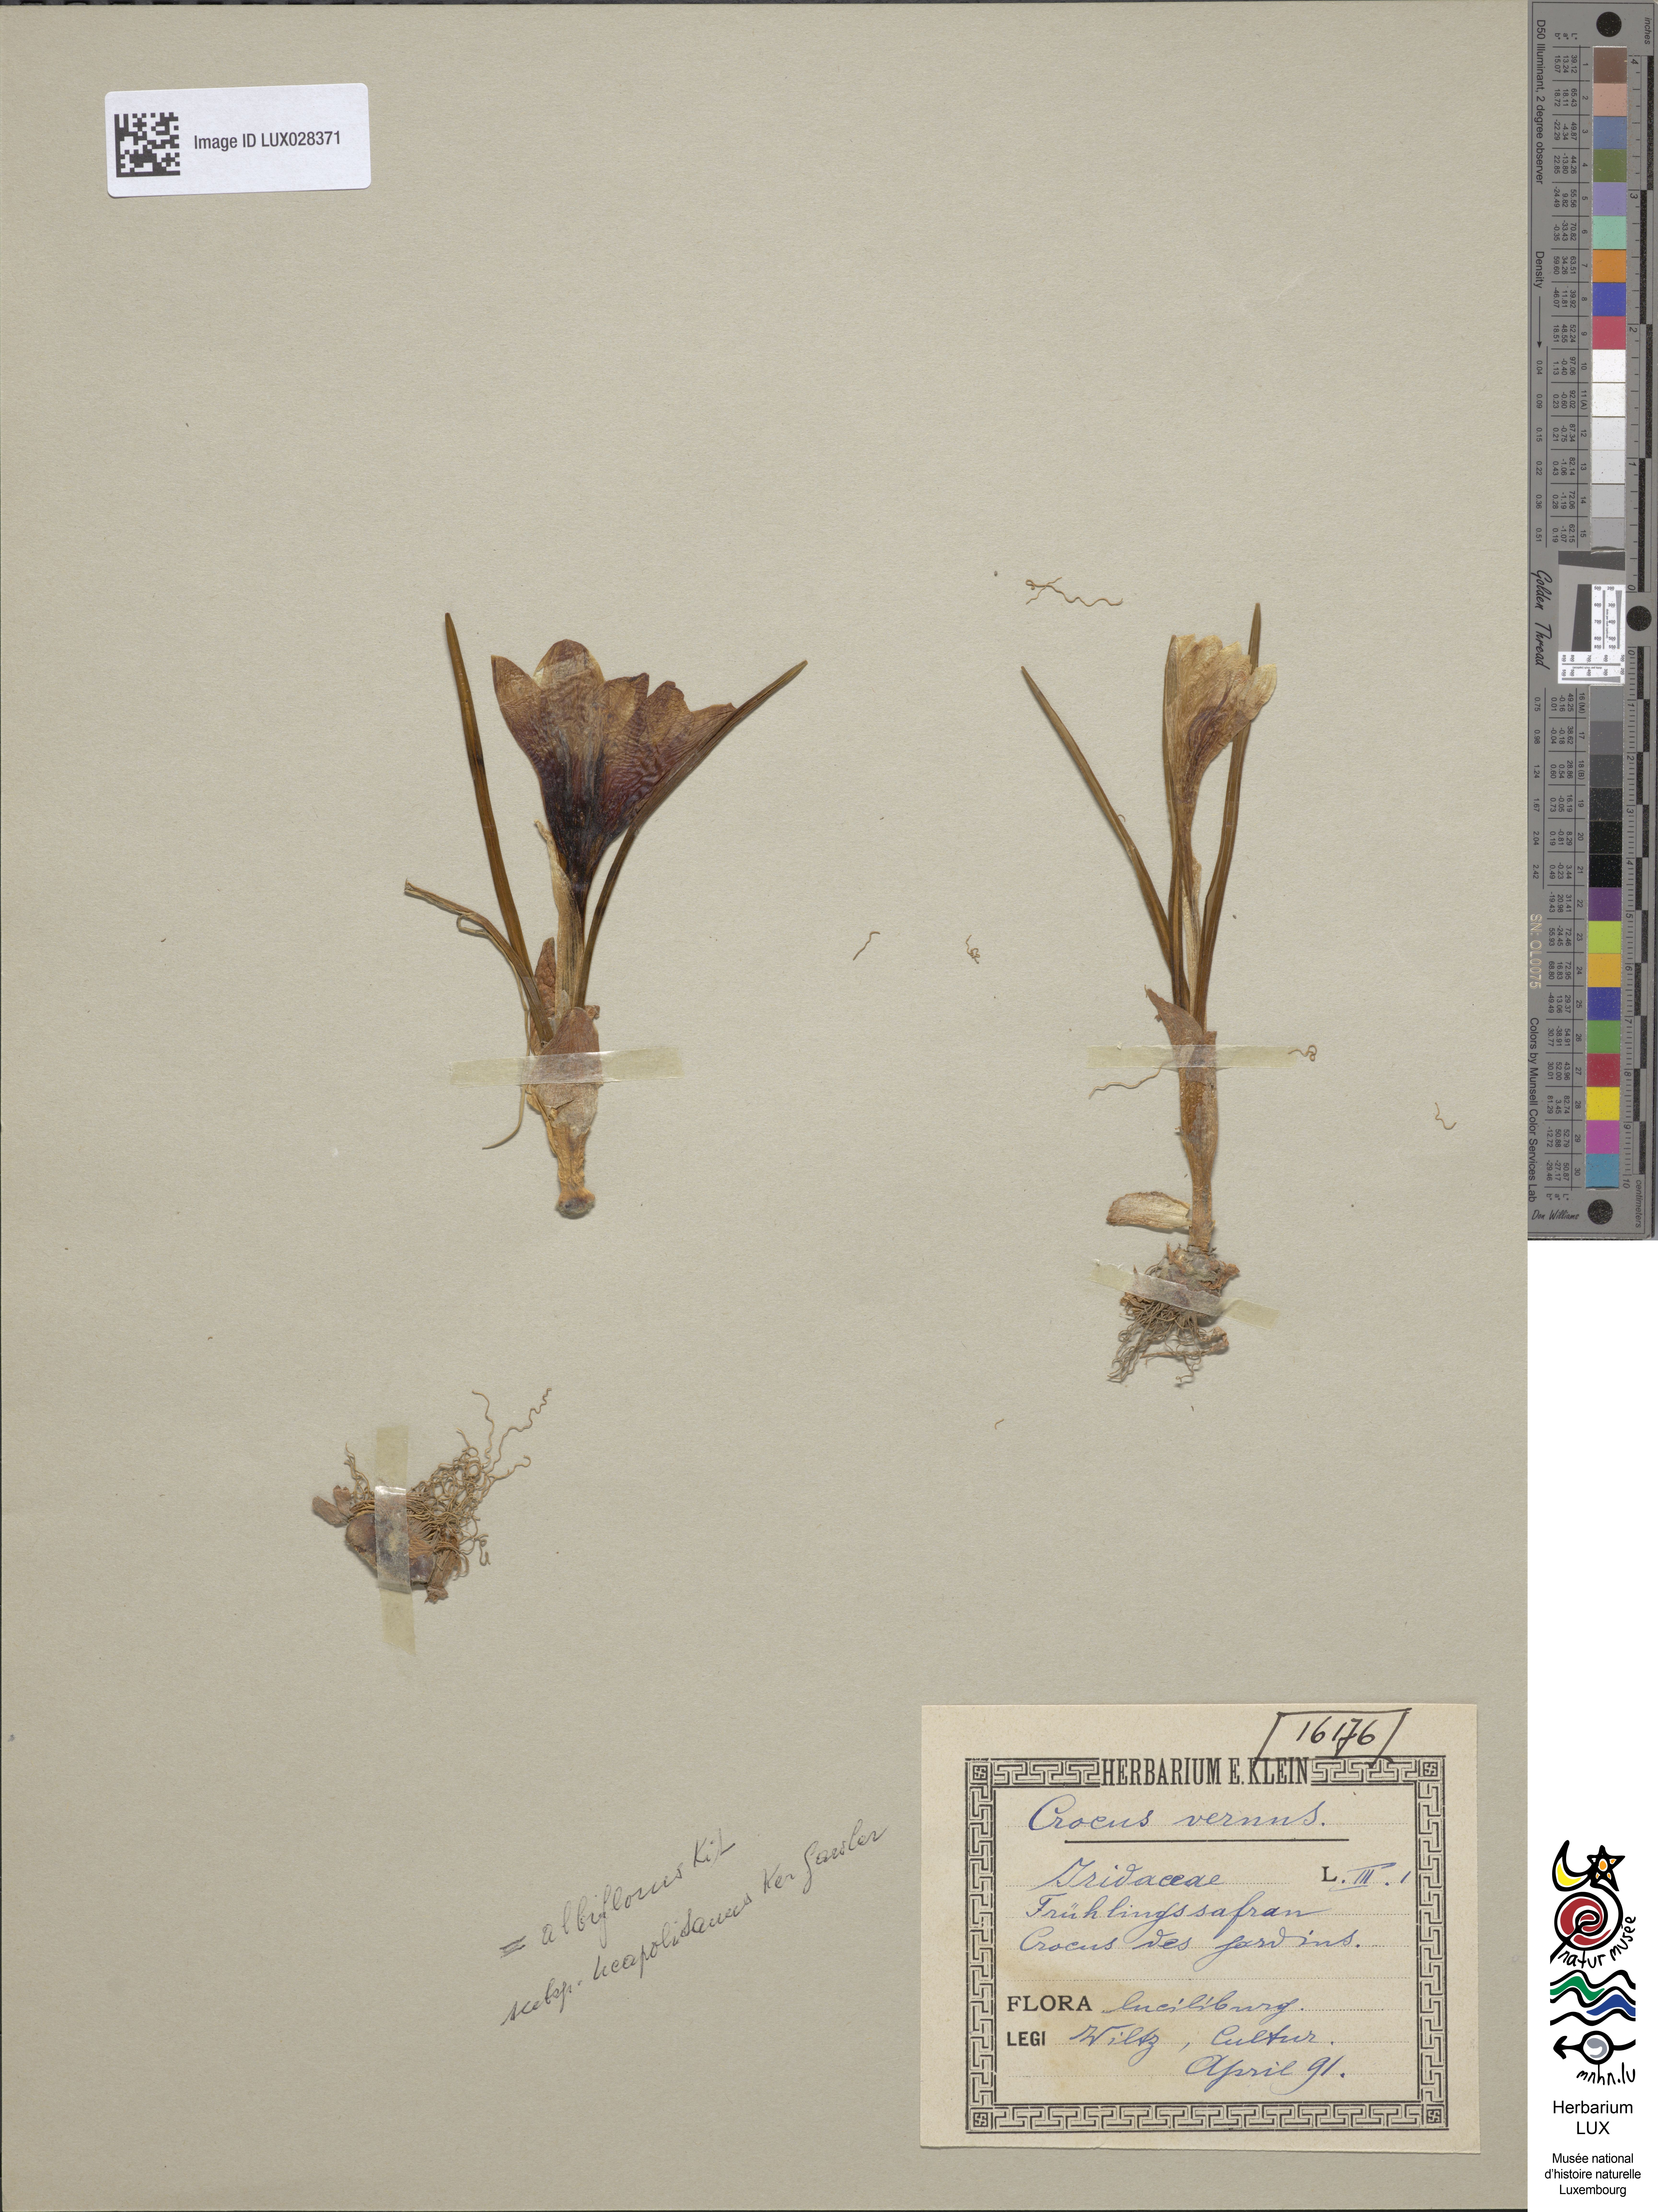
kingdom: Plantae
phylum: Tracheophyta
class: Liliopsida
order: Asparagales
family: Iridaceae
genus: Crocus
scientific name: Crocus vernus
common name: Spring crocus
